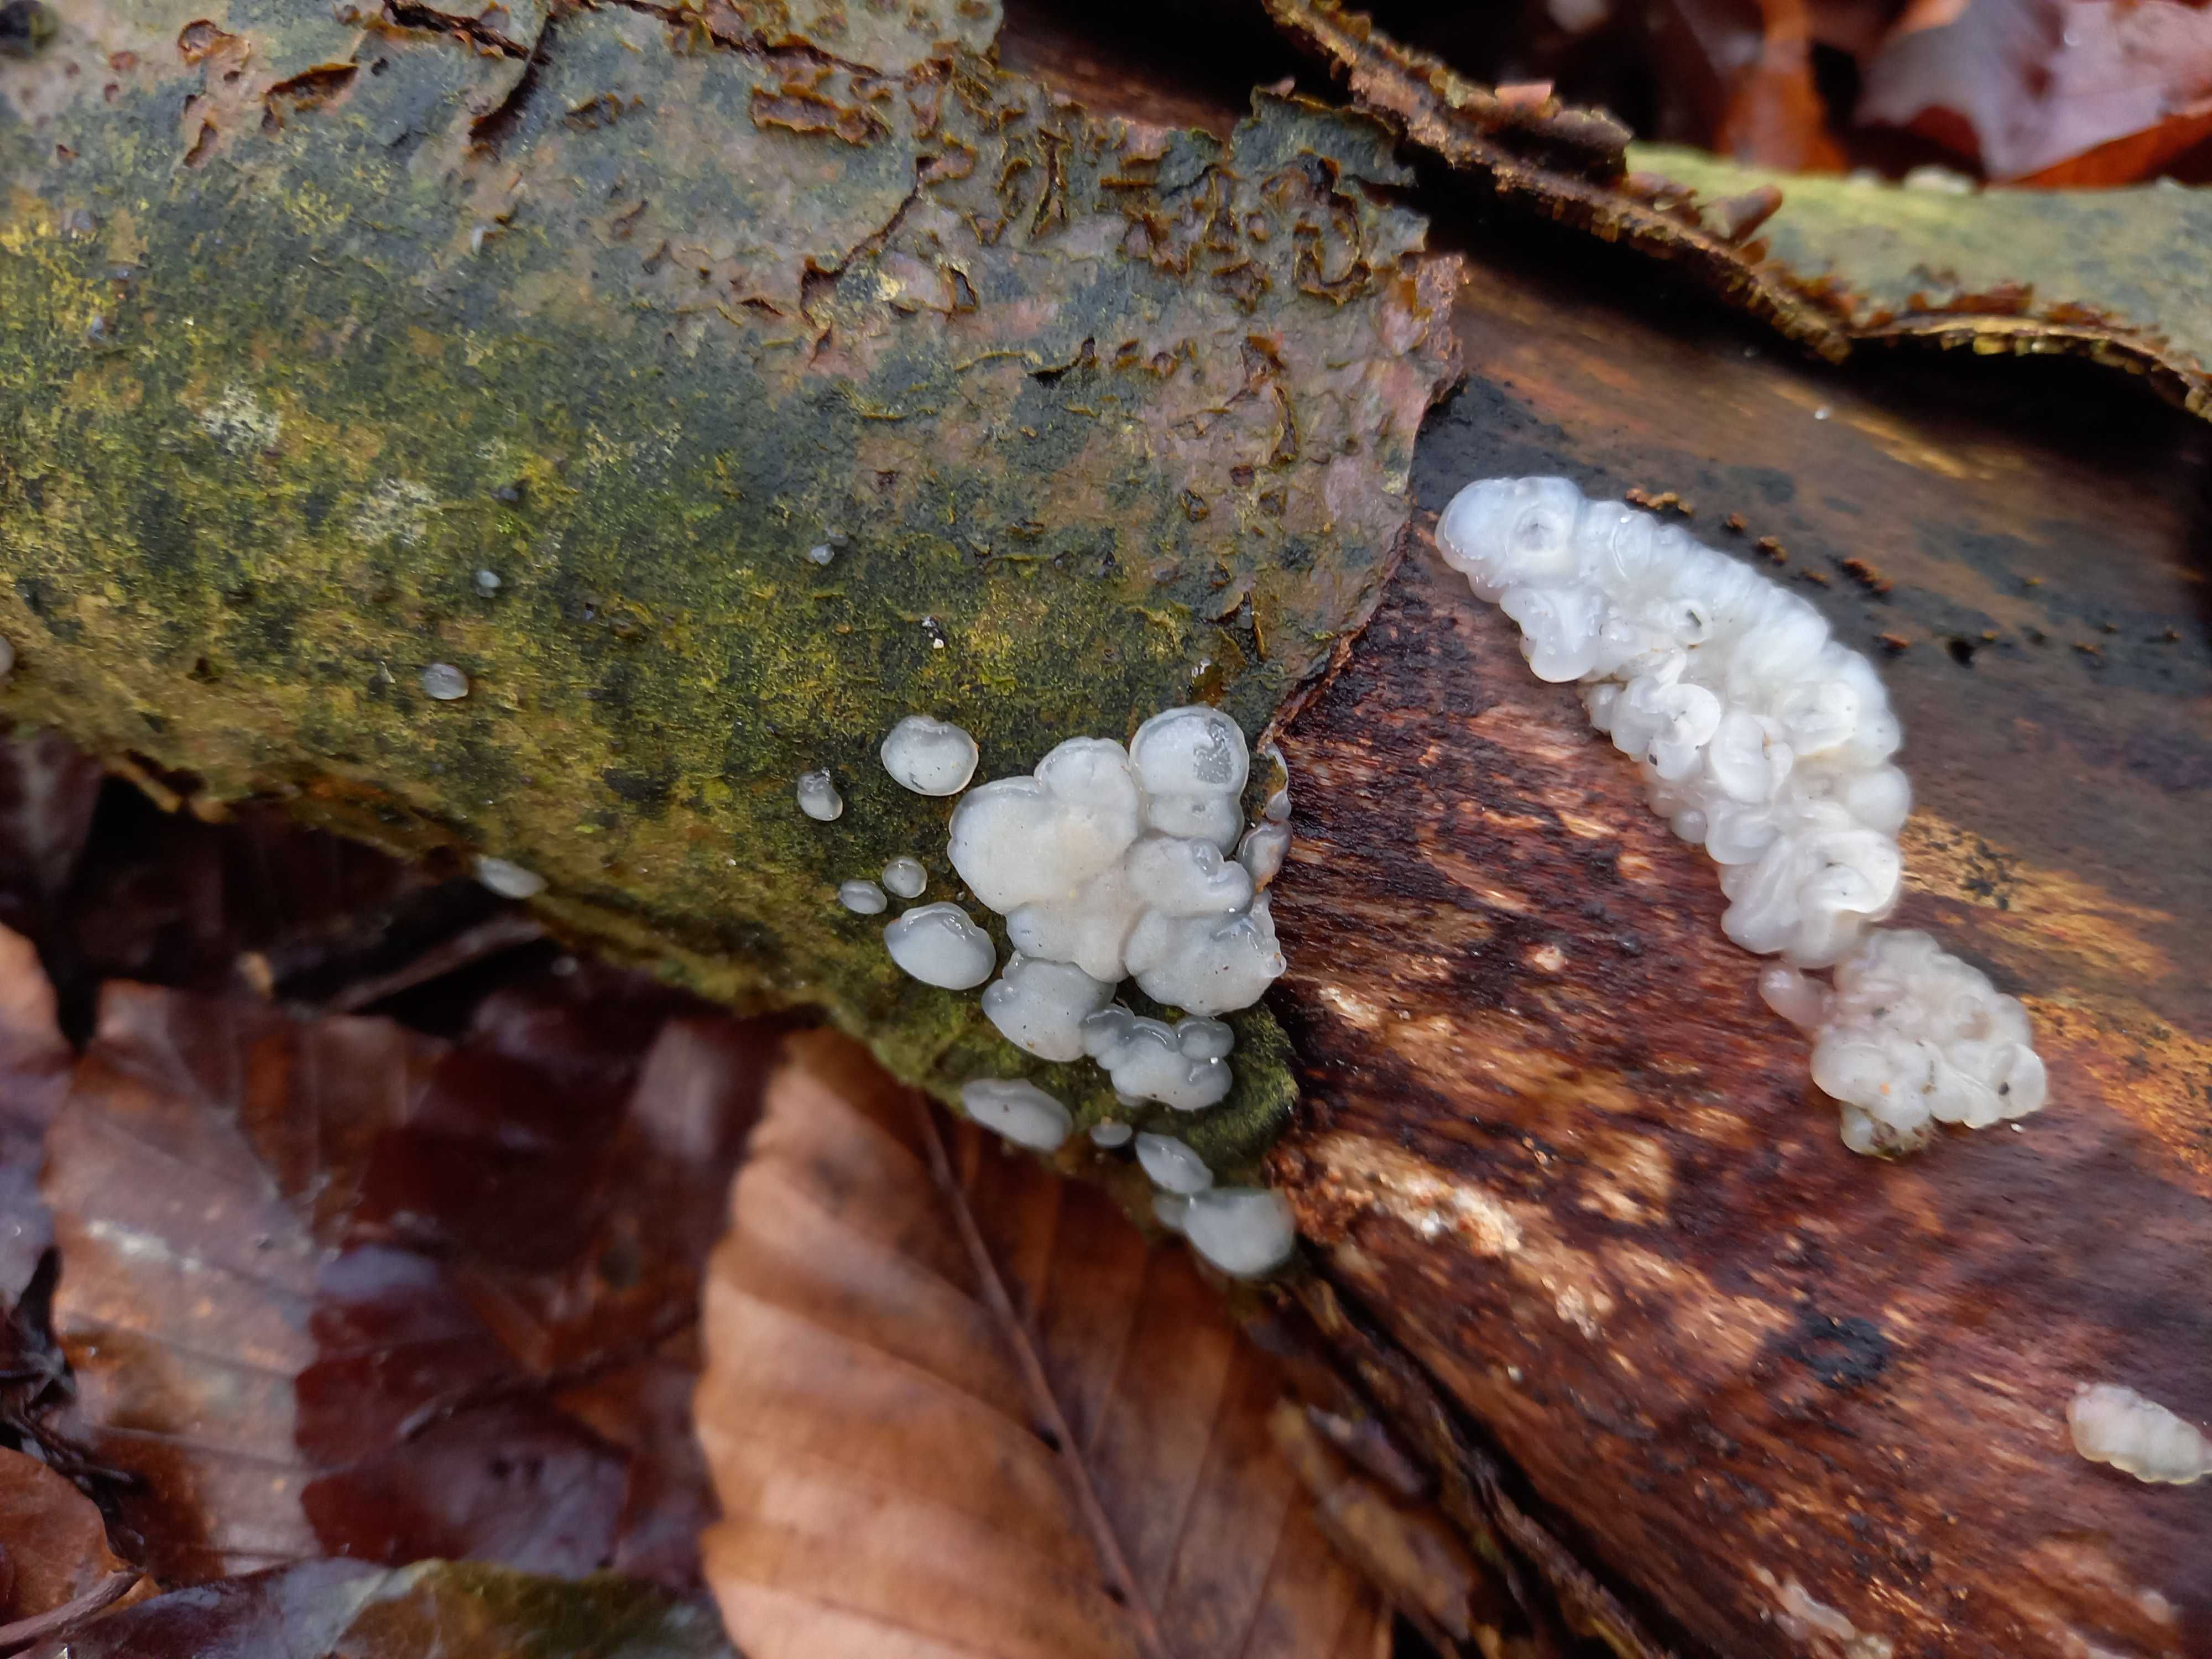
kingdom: Fungi
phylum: Basidiomycota
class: Agaricomycetes
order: Auriculariales
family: Auriculariaceae
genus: Exidia
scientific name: Exidia thuretiana
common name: hvidlig bævretop
